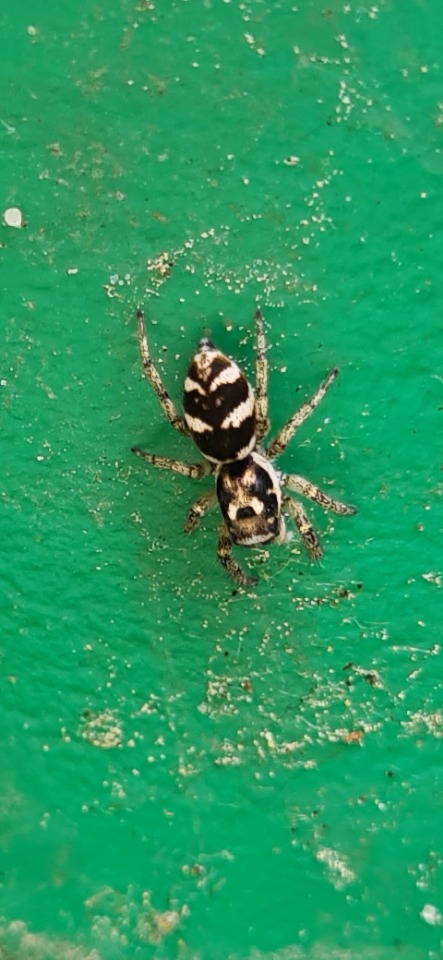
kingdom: Animalia
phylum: Arthropoda
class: Arachnida
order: Araneae
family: Salticidae
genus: Salticus
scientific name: Salticus scenicus
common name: Almindelig zebraedderkop
